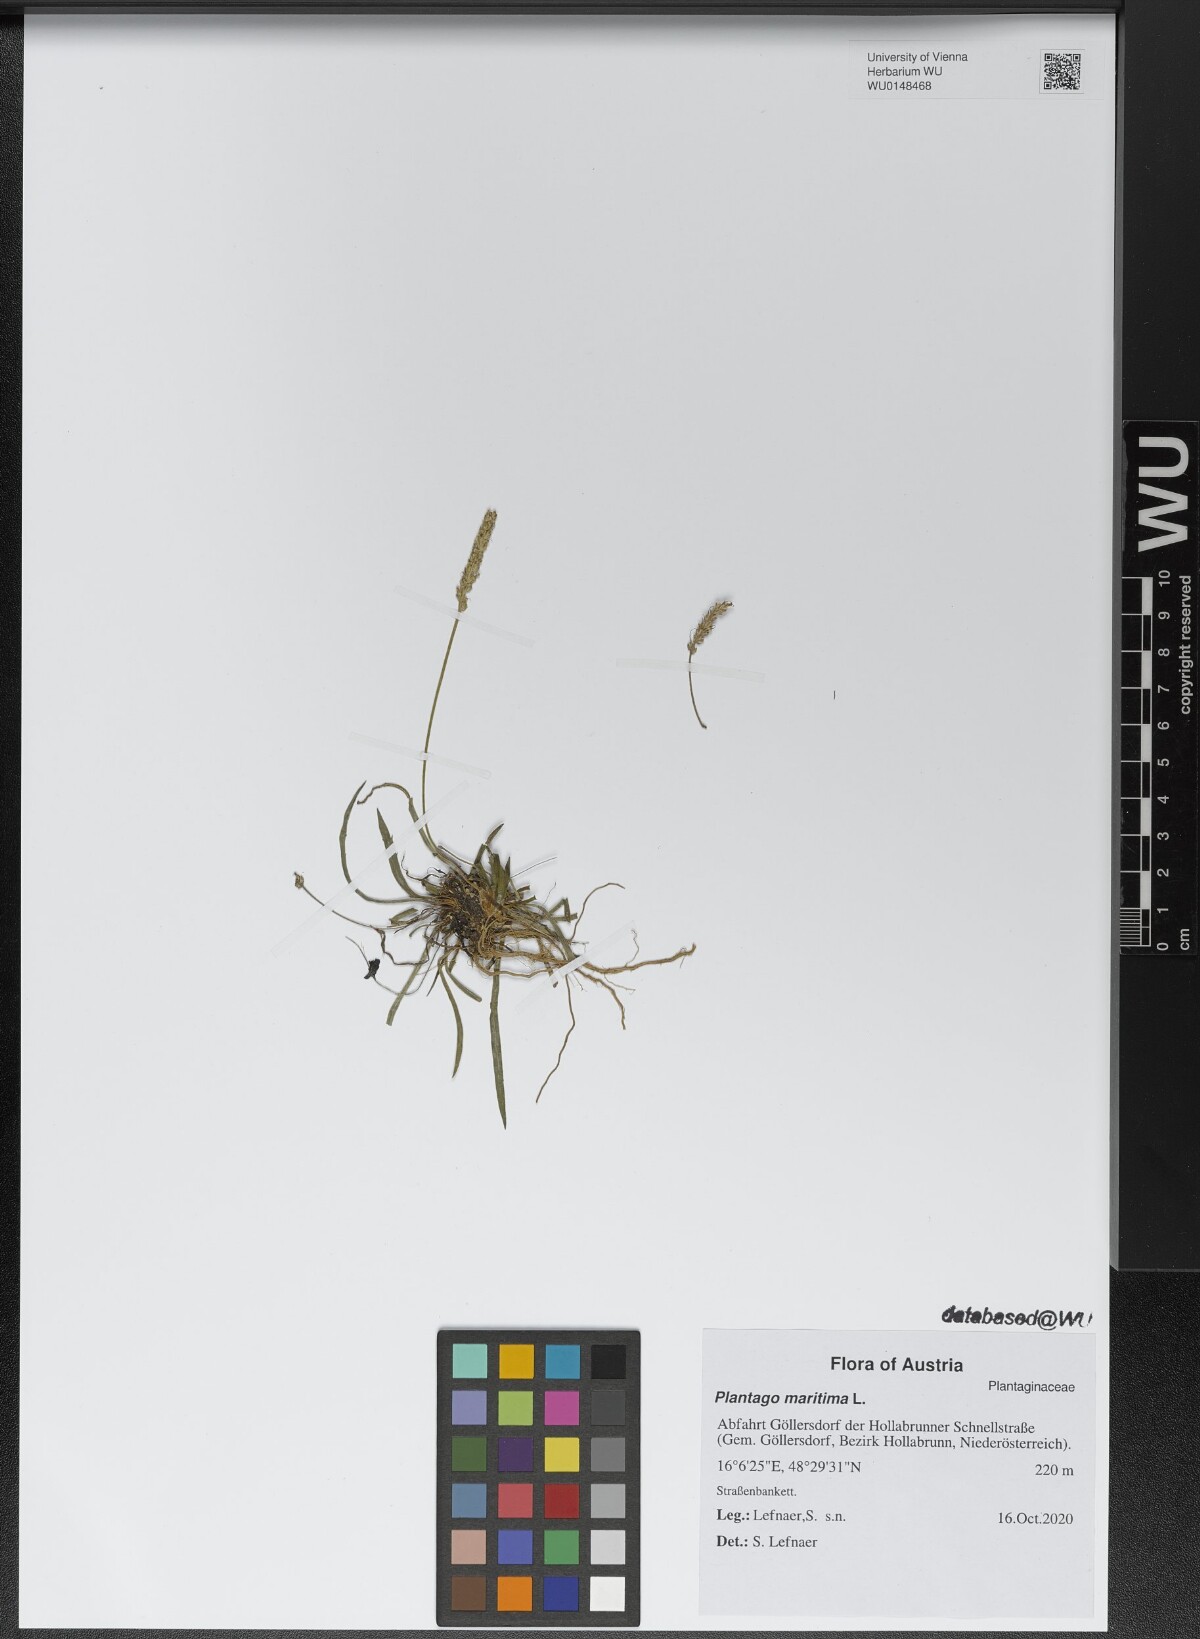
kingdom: Plantae
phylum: Tracheophyta
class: Magnoliopsida
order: Lamiales
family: Plantaginaceae
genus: Plantago
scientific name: Plantago maritima
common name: Sea plantain
